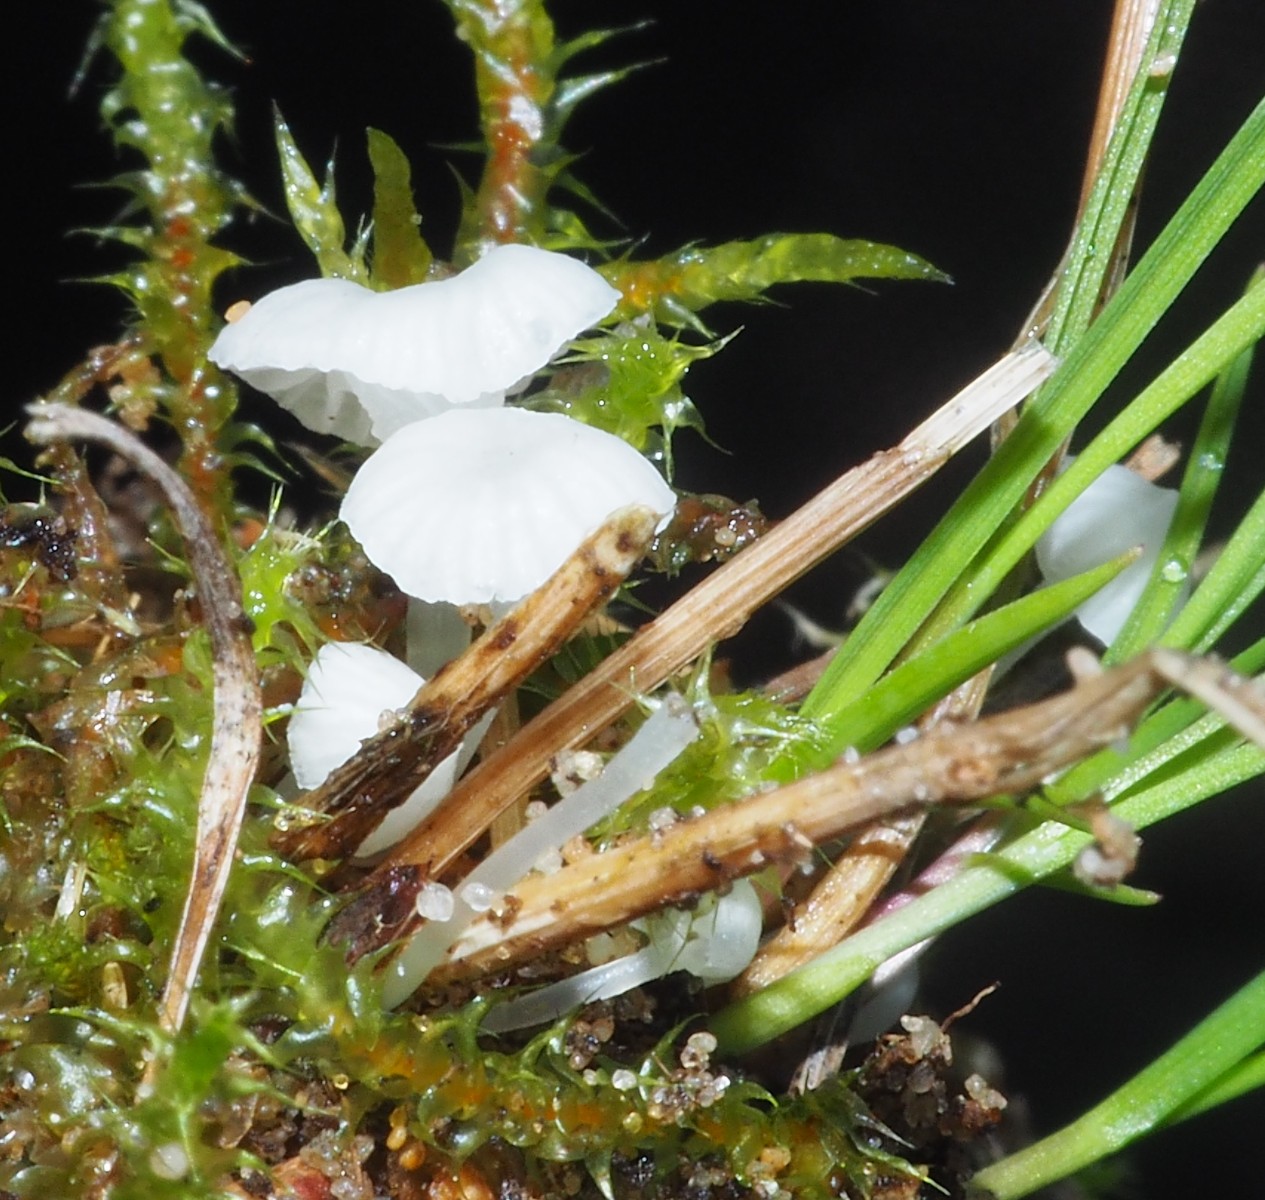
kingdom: Fungi
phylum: Basidiomycota
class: Agaricomycetes
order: Agaricales
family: Mycenaceae
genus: Atheniella
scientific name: Atheniella delectabilis
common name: nitrøs huesvamp
